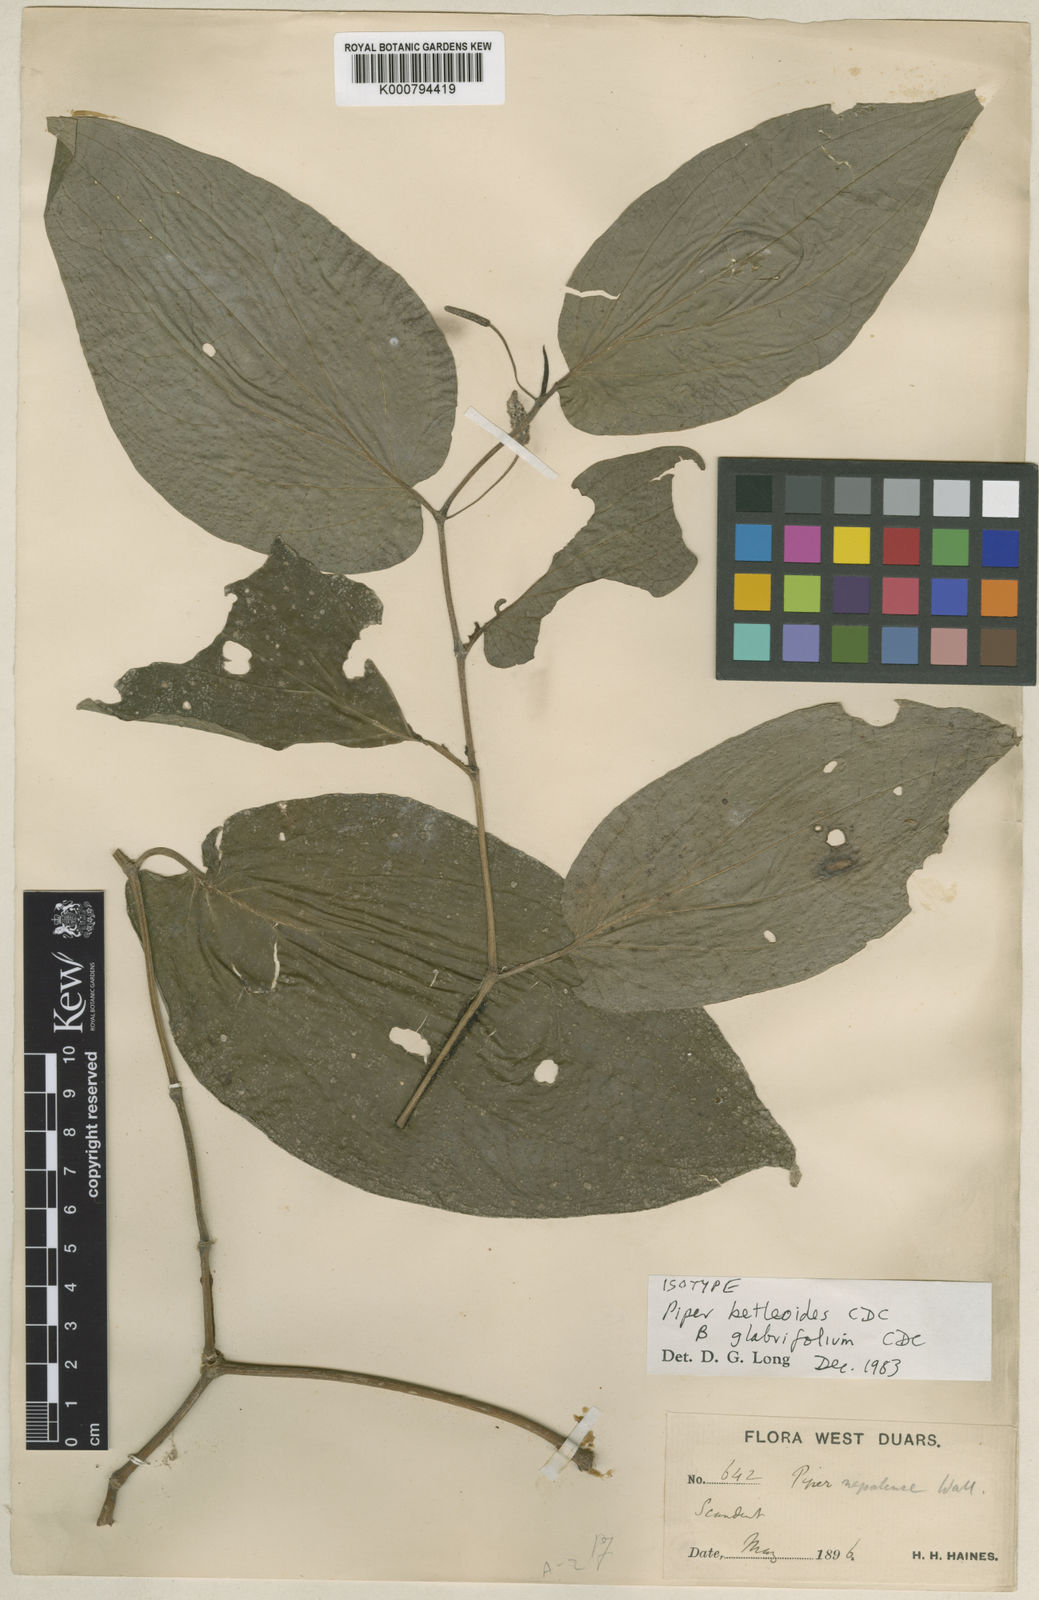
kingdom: Plantae
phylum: Tracheophyta
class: Magnoliopsida
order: Piperales
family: Piperaceae
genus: Piper
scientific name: Piper betleoides
